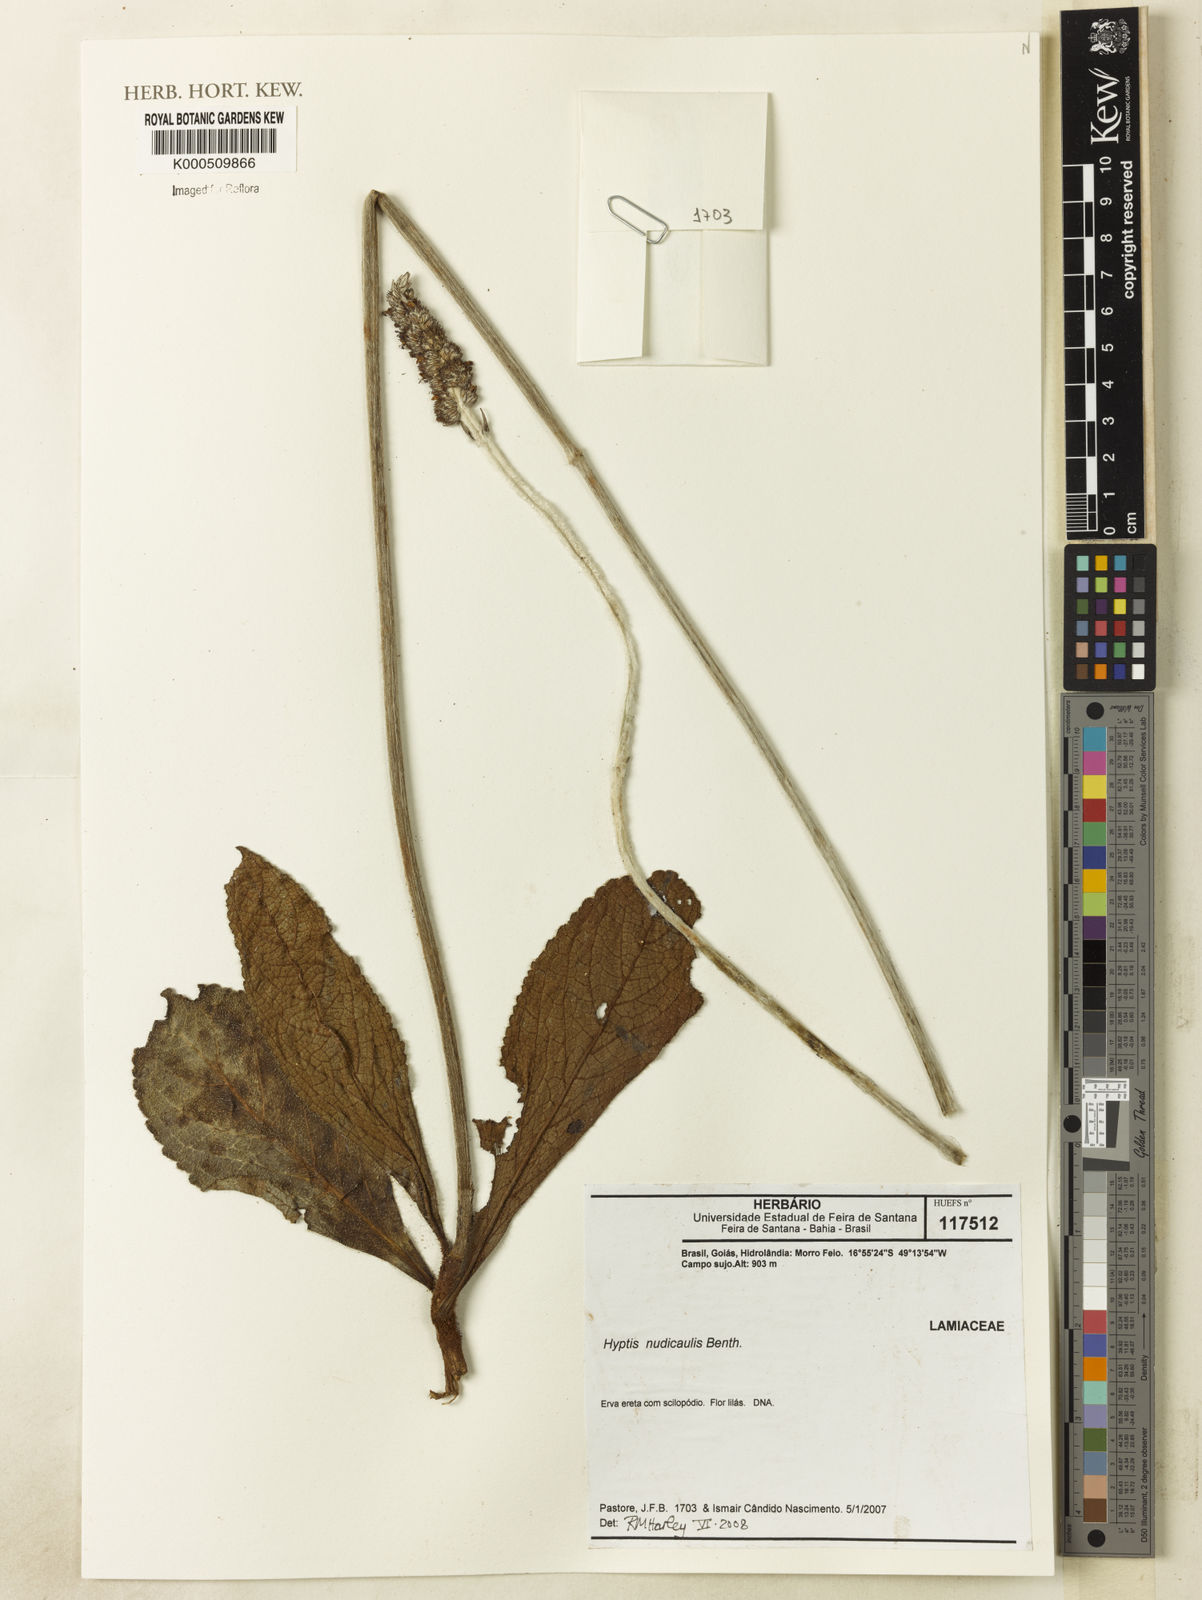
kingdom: Plantae
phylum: Tracheophyta
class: Magnoliopsida
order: Lamiales
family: Lamiaceae
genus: Hyptis
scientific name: Hyptis nudicaulis
